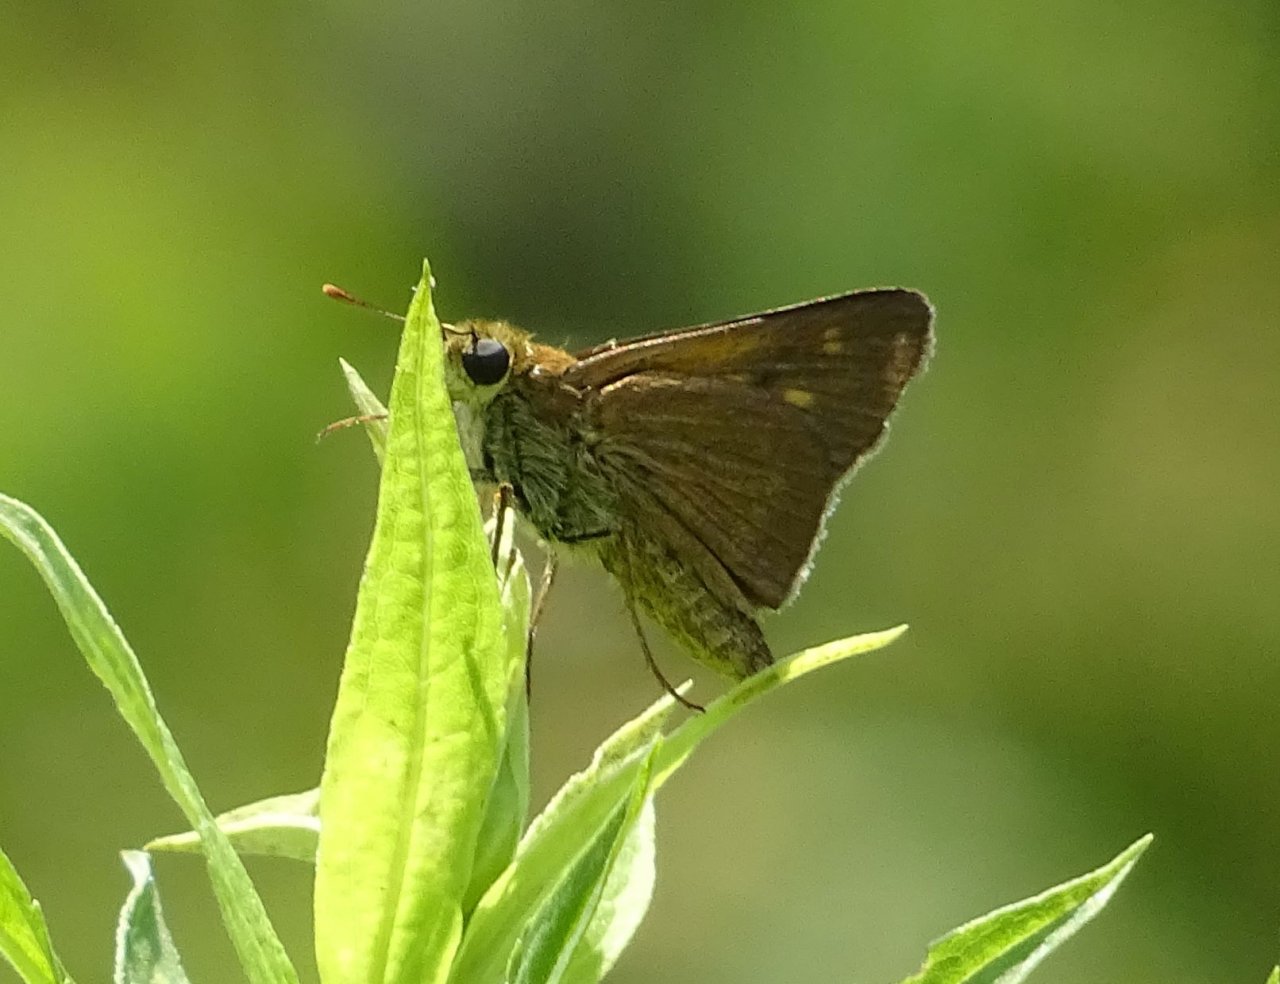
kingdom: Animalia
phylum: Arthropoda
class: Insecta
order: Lepidoptera
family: Hesperiidae
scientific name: Hesperiidae
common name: Skippers
